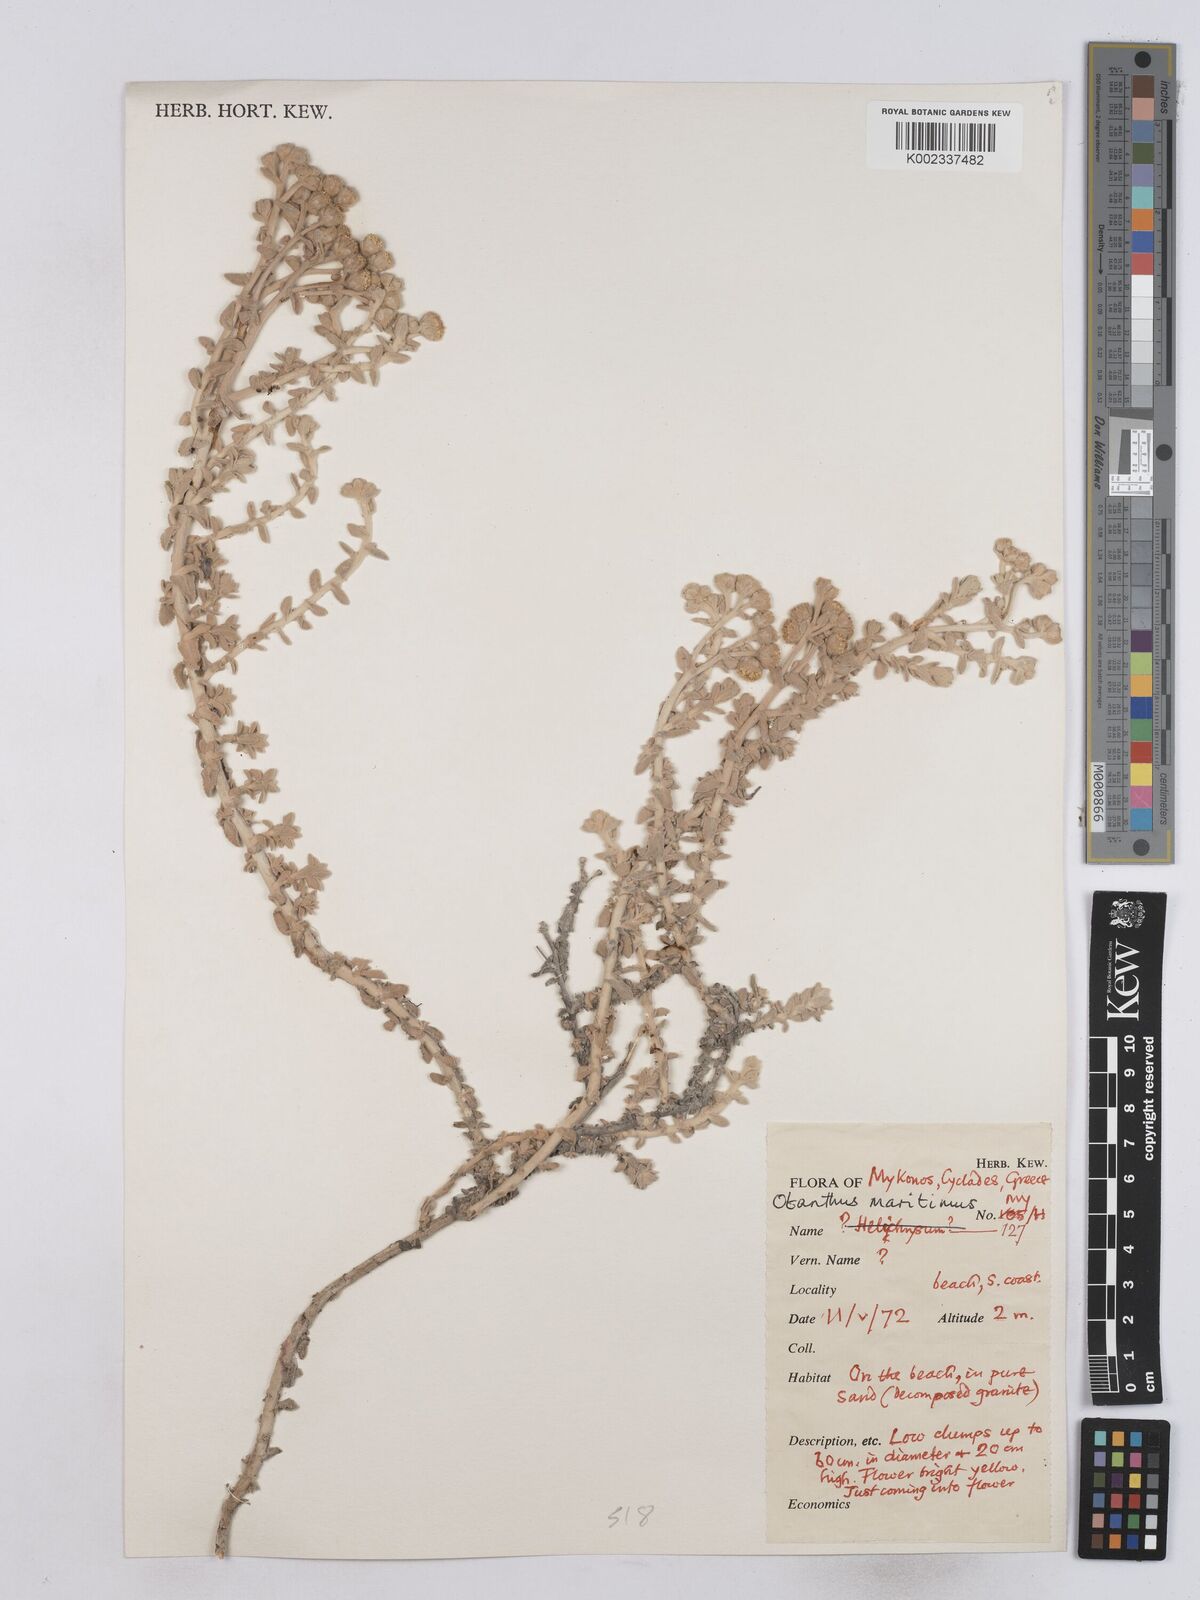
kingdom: Plantae
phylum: Tracheophyta
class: Magnoliopsida
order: Asterales
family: Asteraceae
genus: Achillea
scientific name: Achillea maritima
